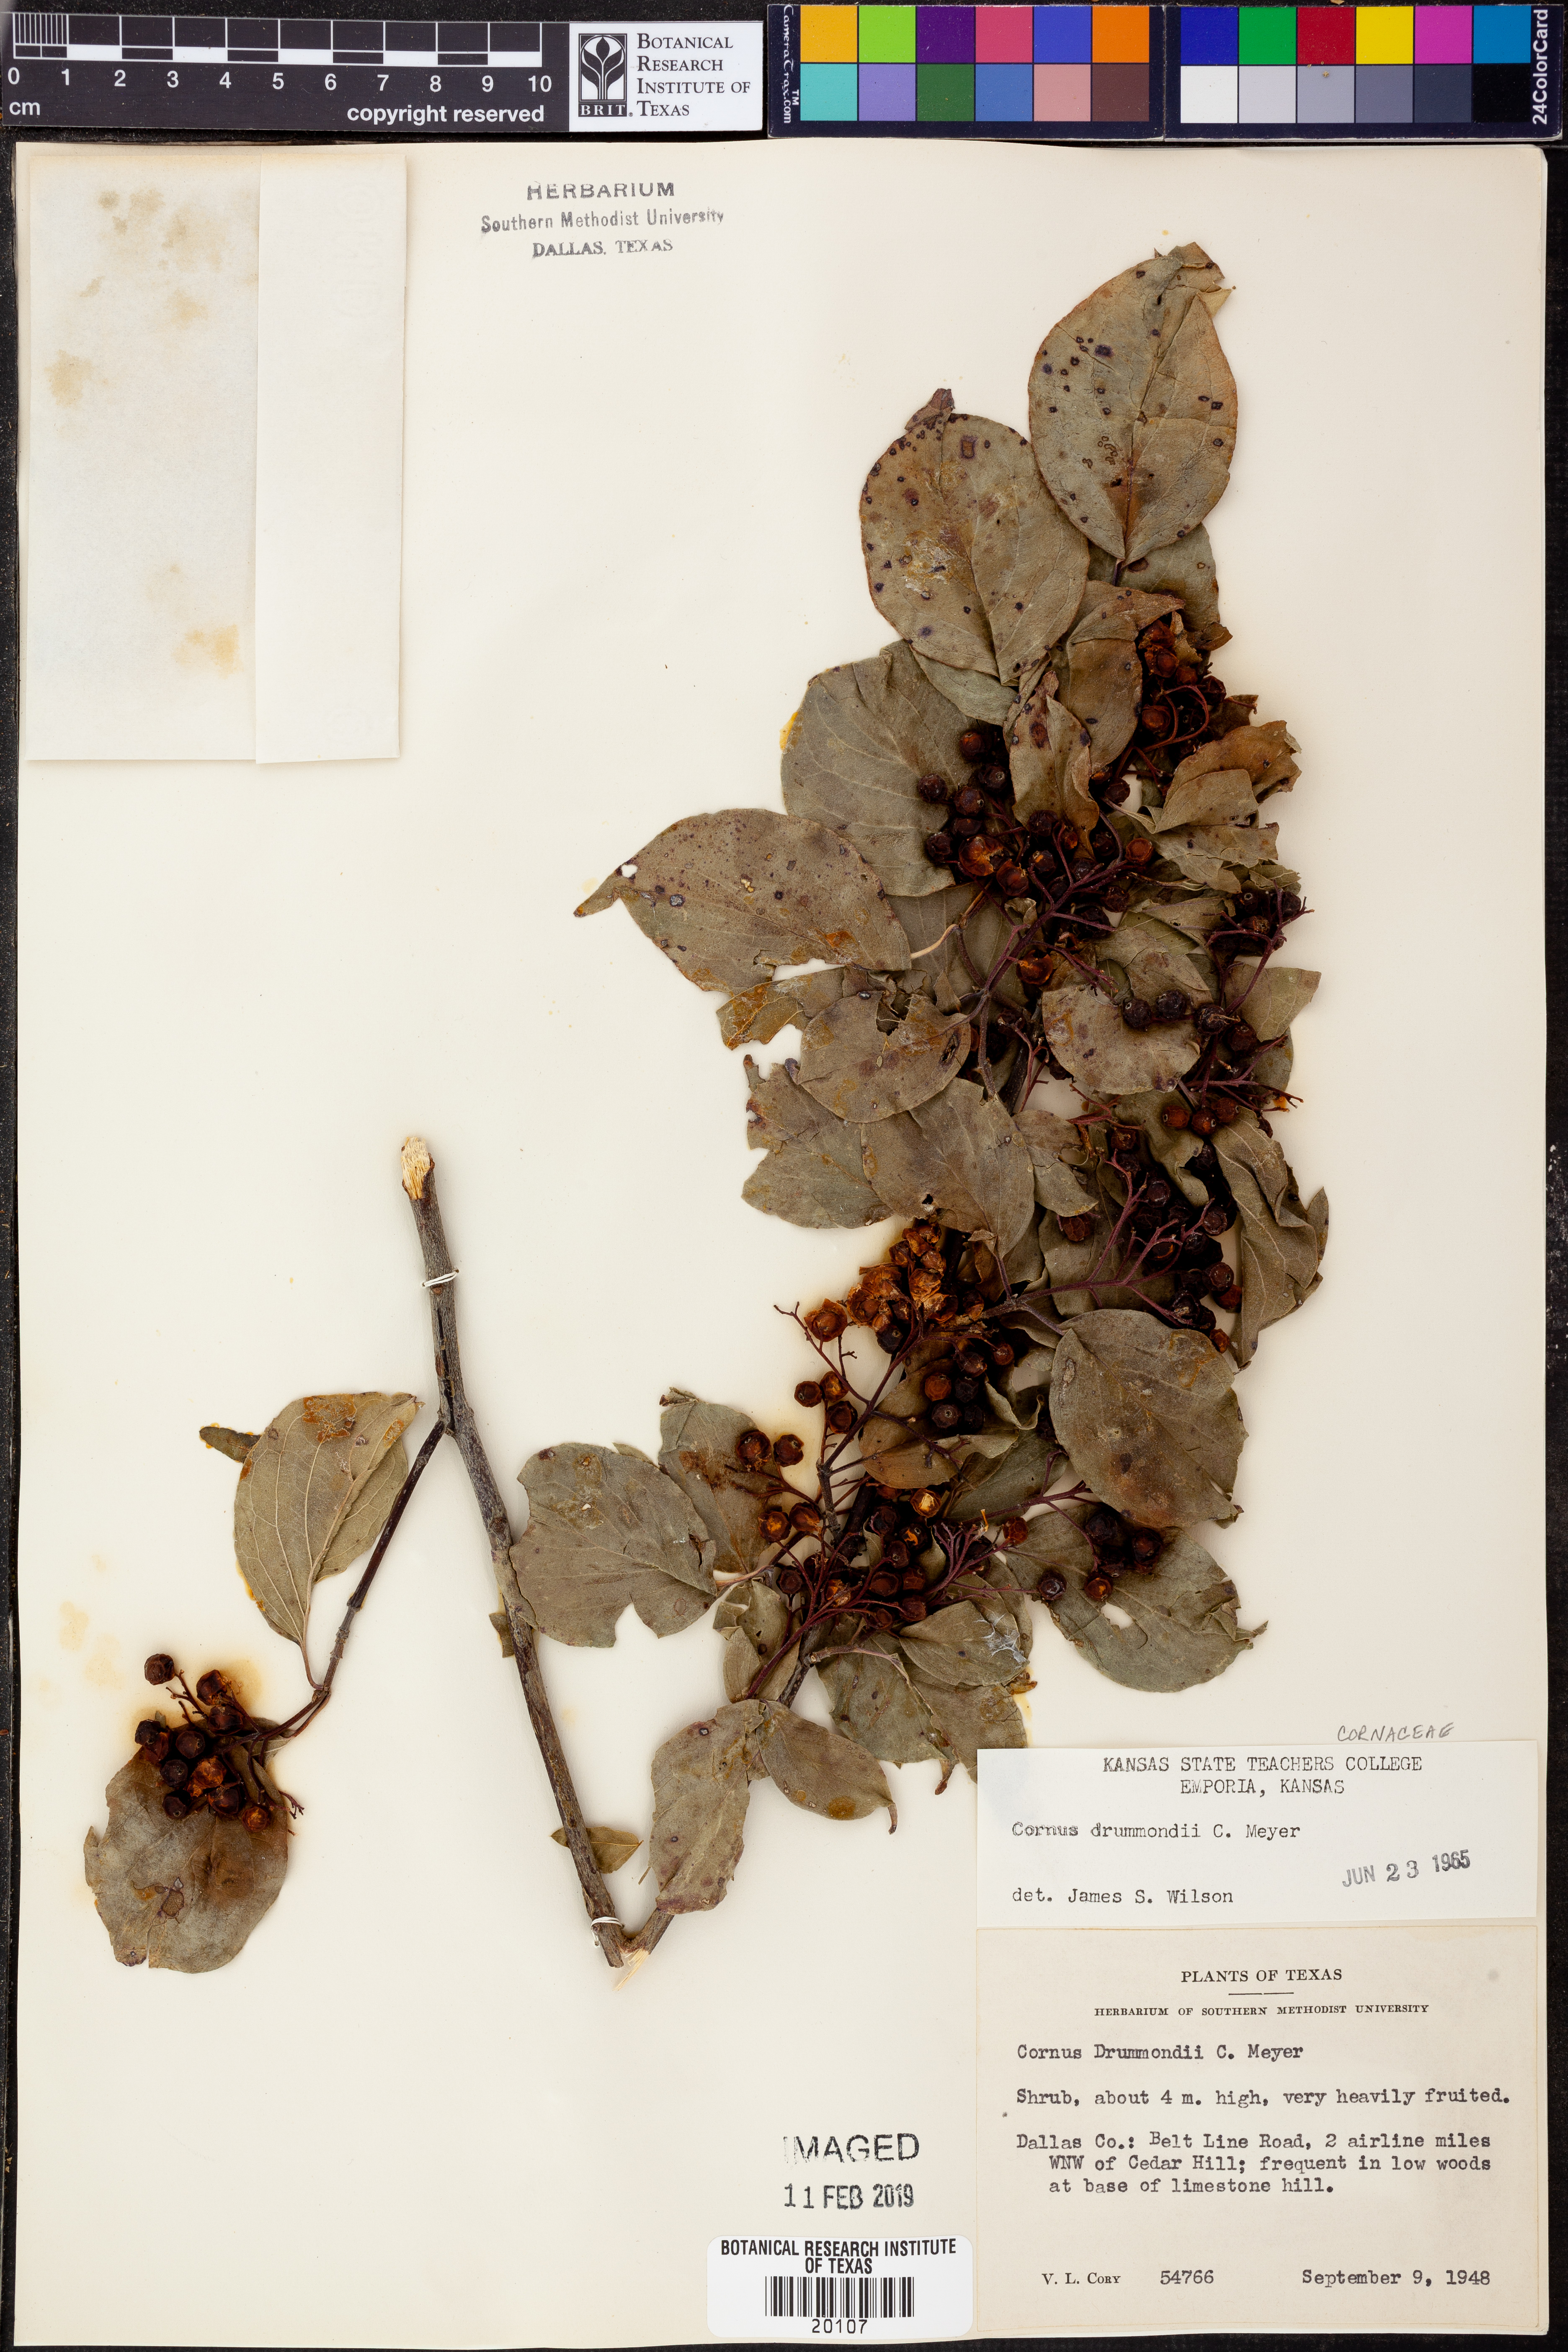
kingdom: Plantae
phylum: Tracheophyta
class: Magnoliopsida
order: Cornales
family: Cornaceae
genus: Cornus
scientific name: Cornus drummondii
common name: Rough-leaf dogwood
